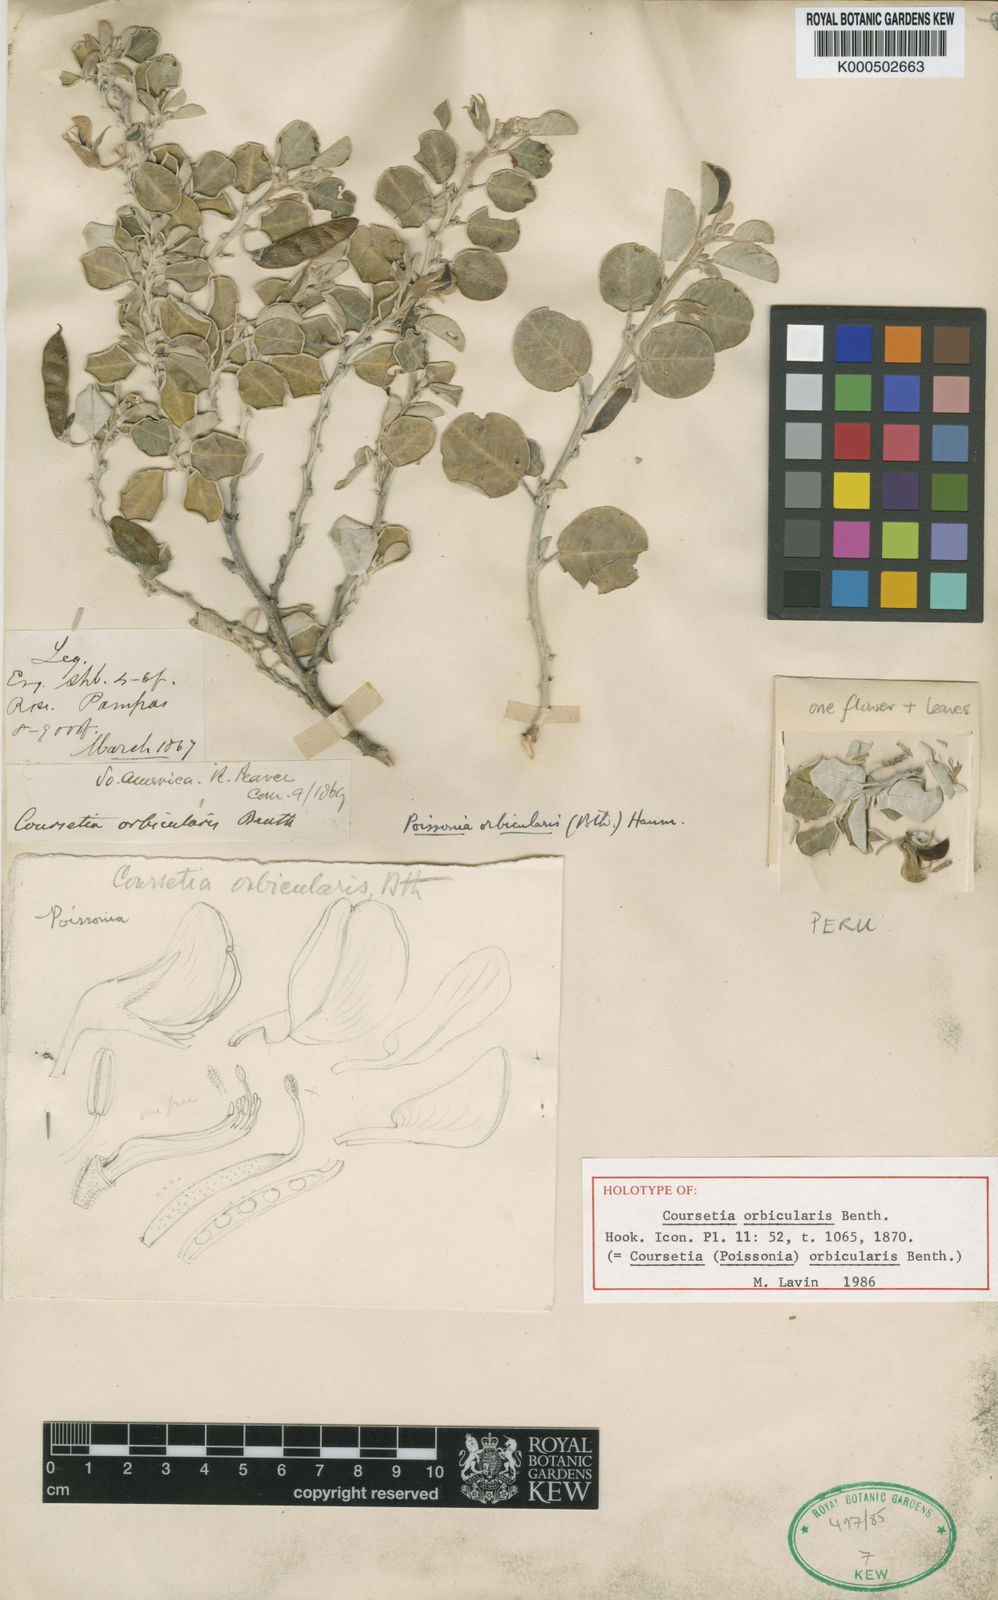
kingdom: Plantae
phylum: Tracheophyta
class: Magnoliopsida
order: Fabales
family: Fabaceae
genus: Poissonia
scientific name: Poissonia orbicularis
